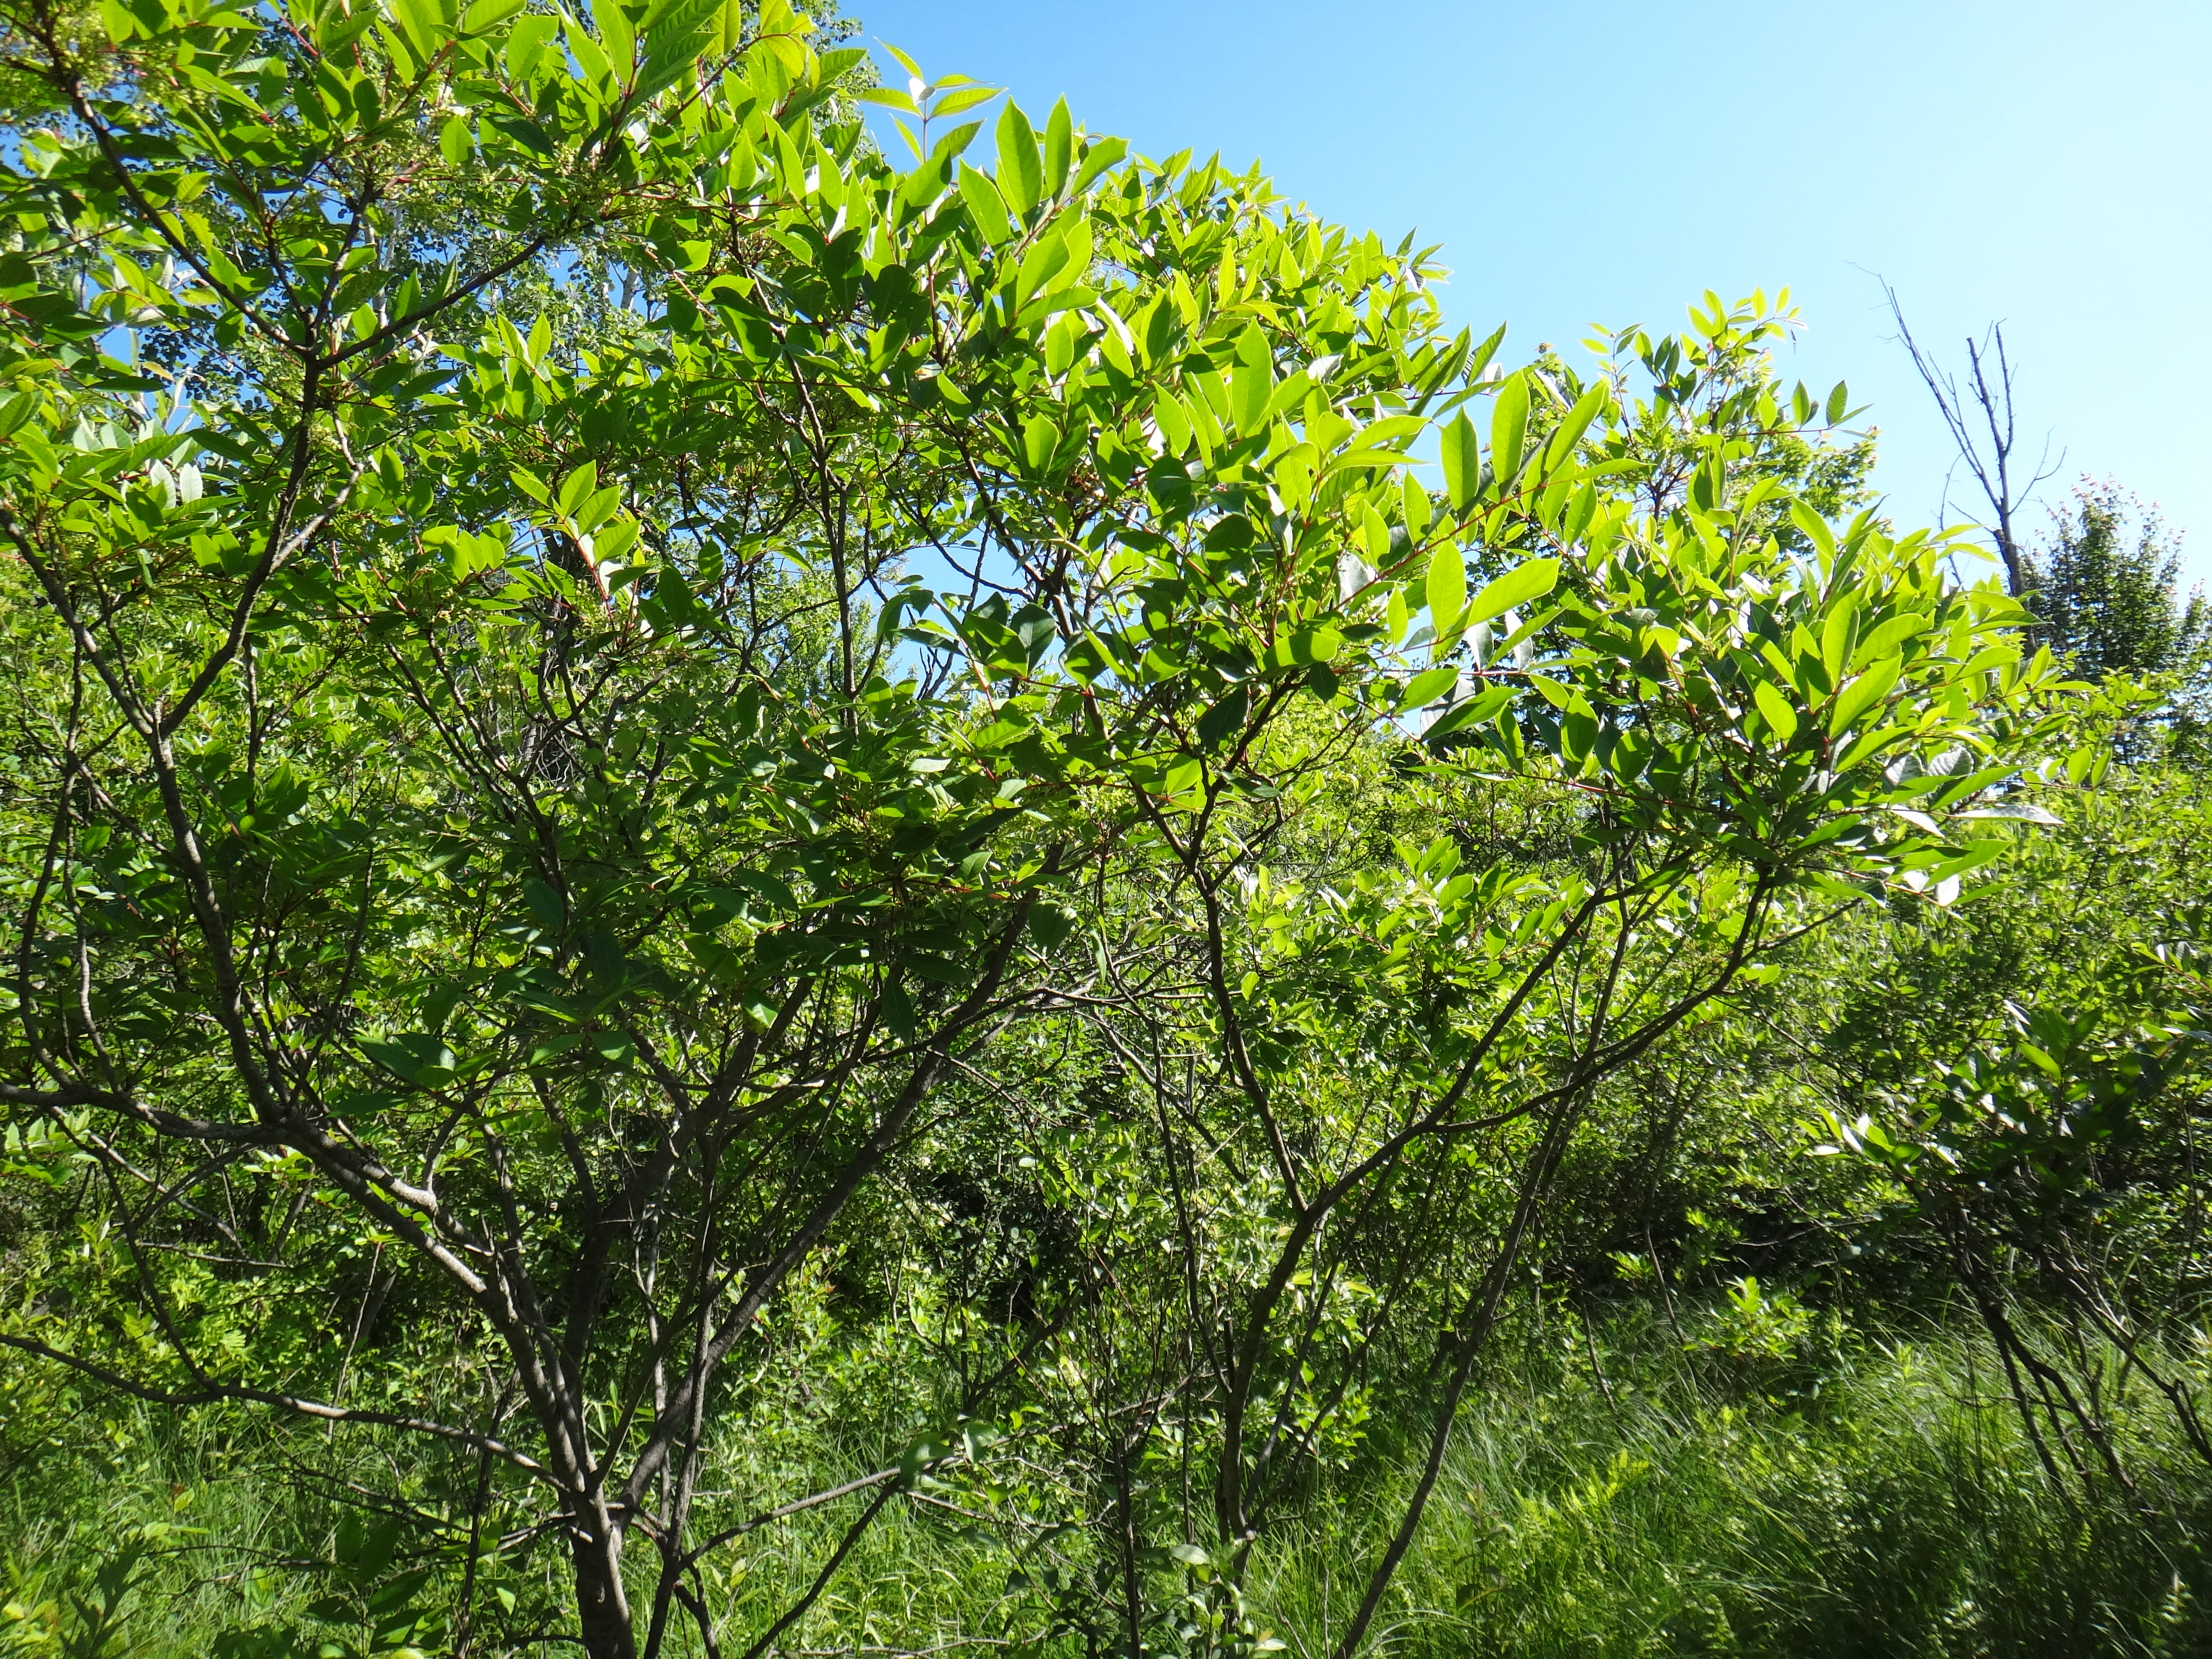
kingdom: Plantae
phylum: Tracheophyta
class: Magnoliopsida
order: Asterales
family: Asteraceae
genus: Doellingeria
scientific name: Doellingeria umbellata
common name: Flat-top white aster
